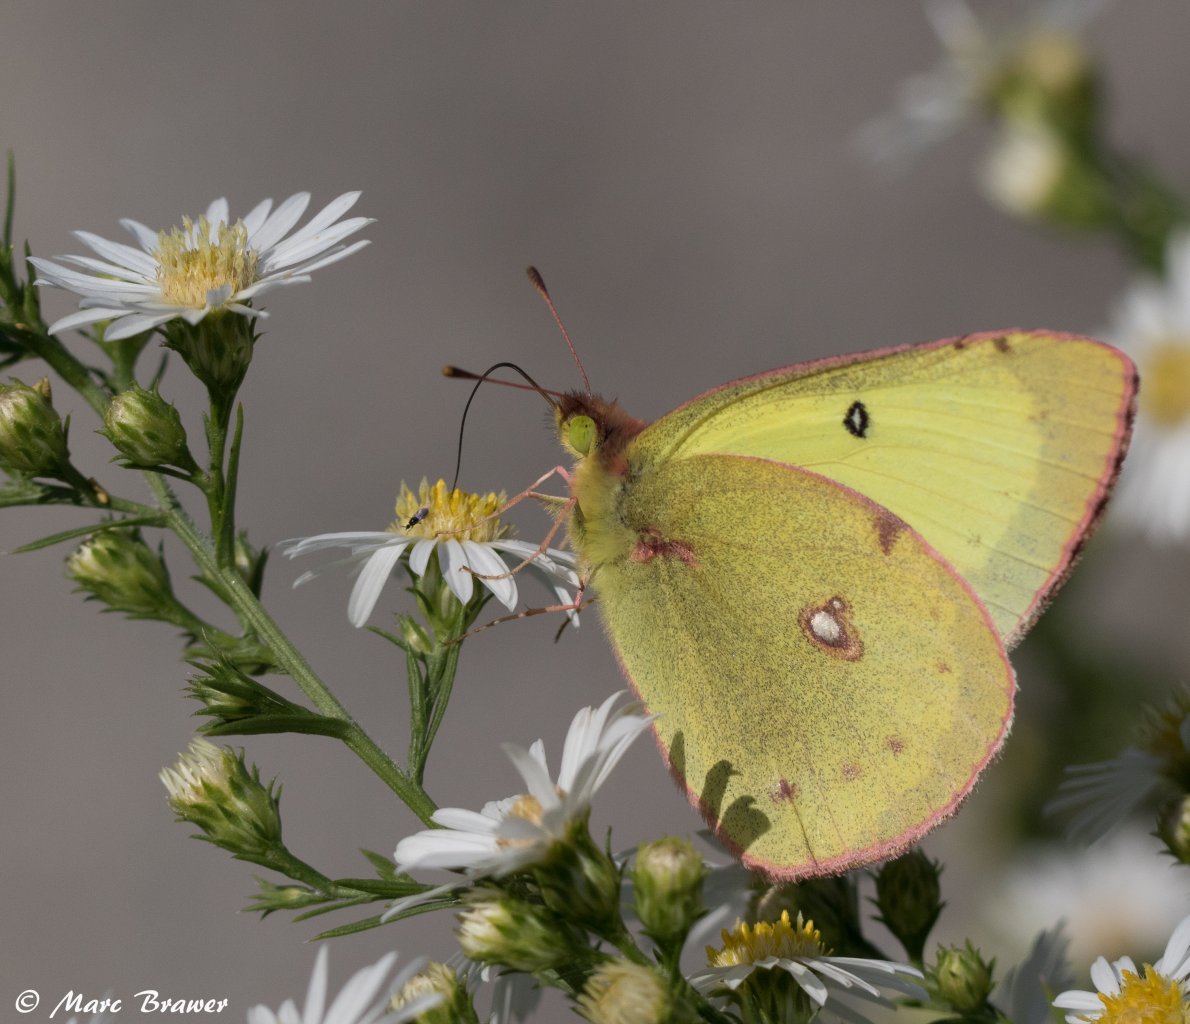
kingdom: Animalia
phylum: Arthropoda
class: Insecta
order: Lepidoptera
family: Pieridae
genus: Colias
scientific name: Colias philodice
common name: Clouded Sulphur
